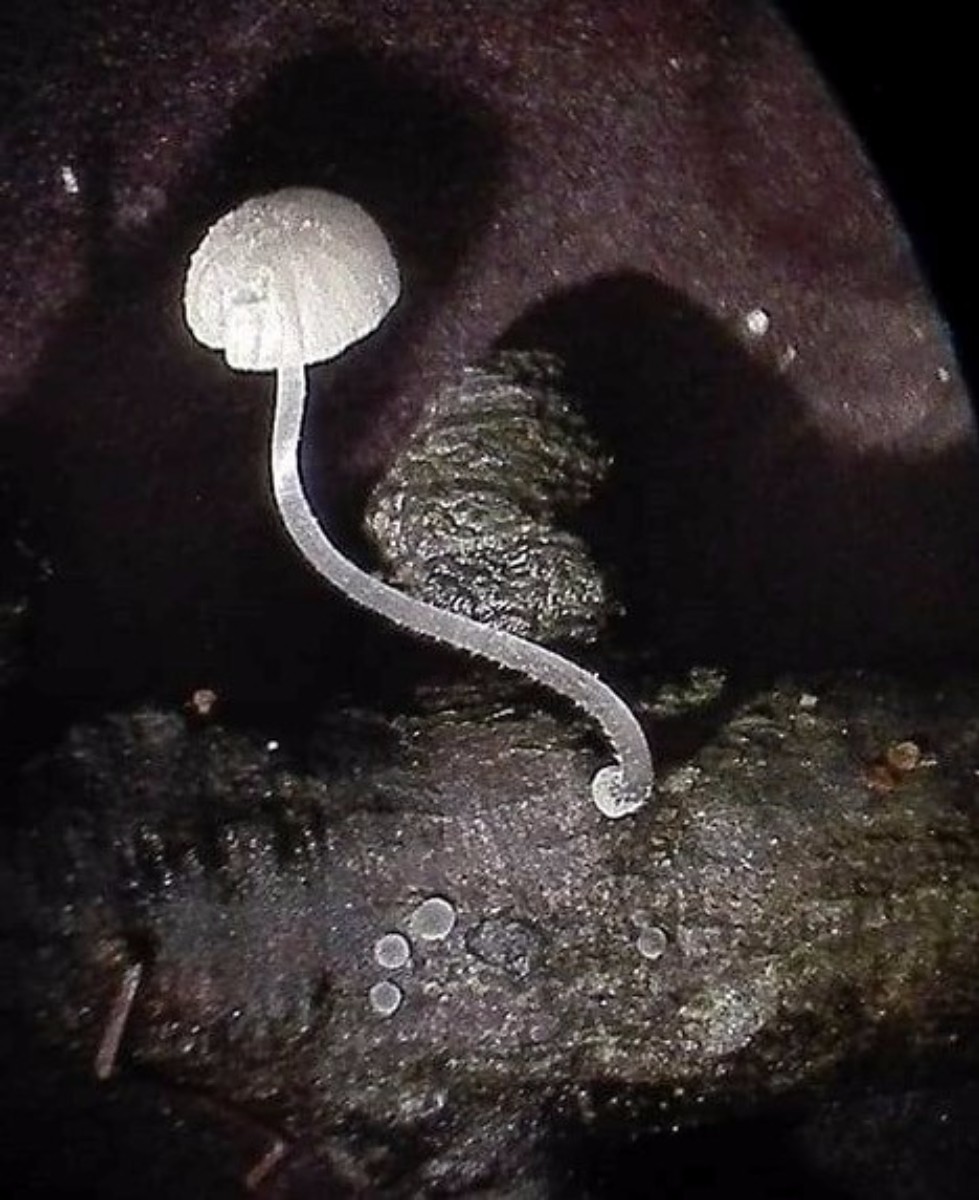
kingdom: Fungi
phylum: Basidiomycota
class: Agaricomycetes
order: Agaricales
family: Mycenaceae
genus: Mycena
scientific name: Mycena tenerrima
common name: pudret huesvamp
